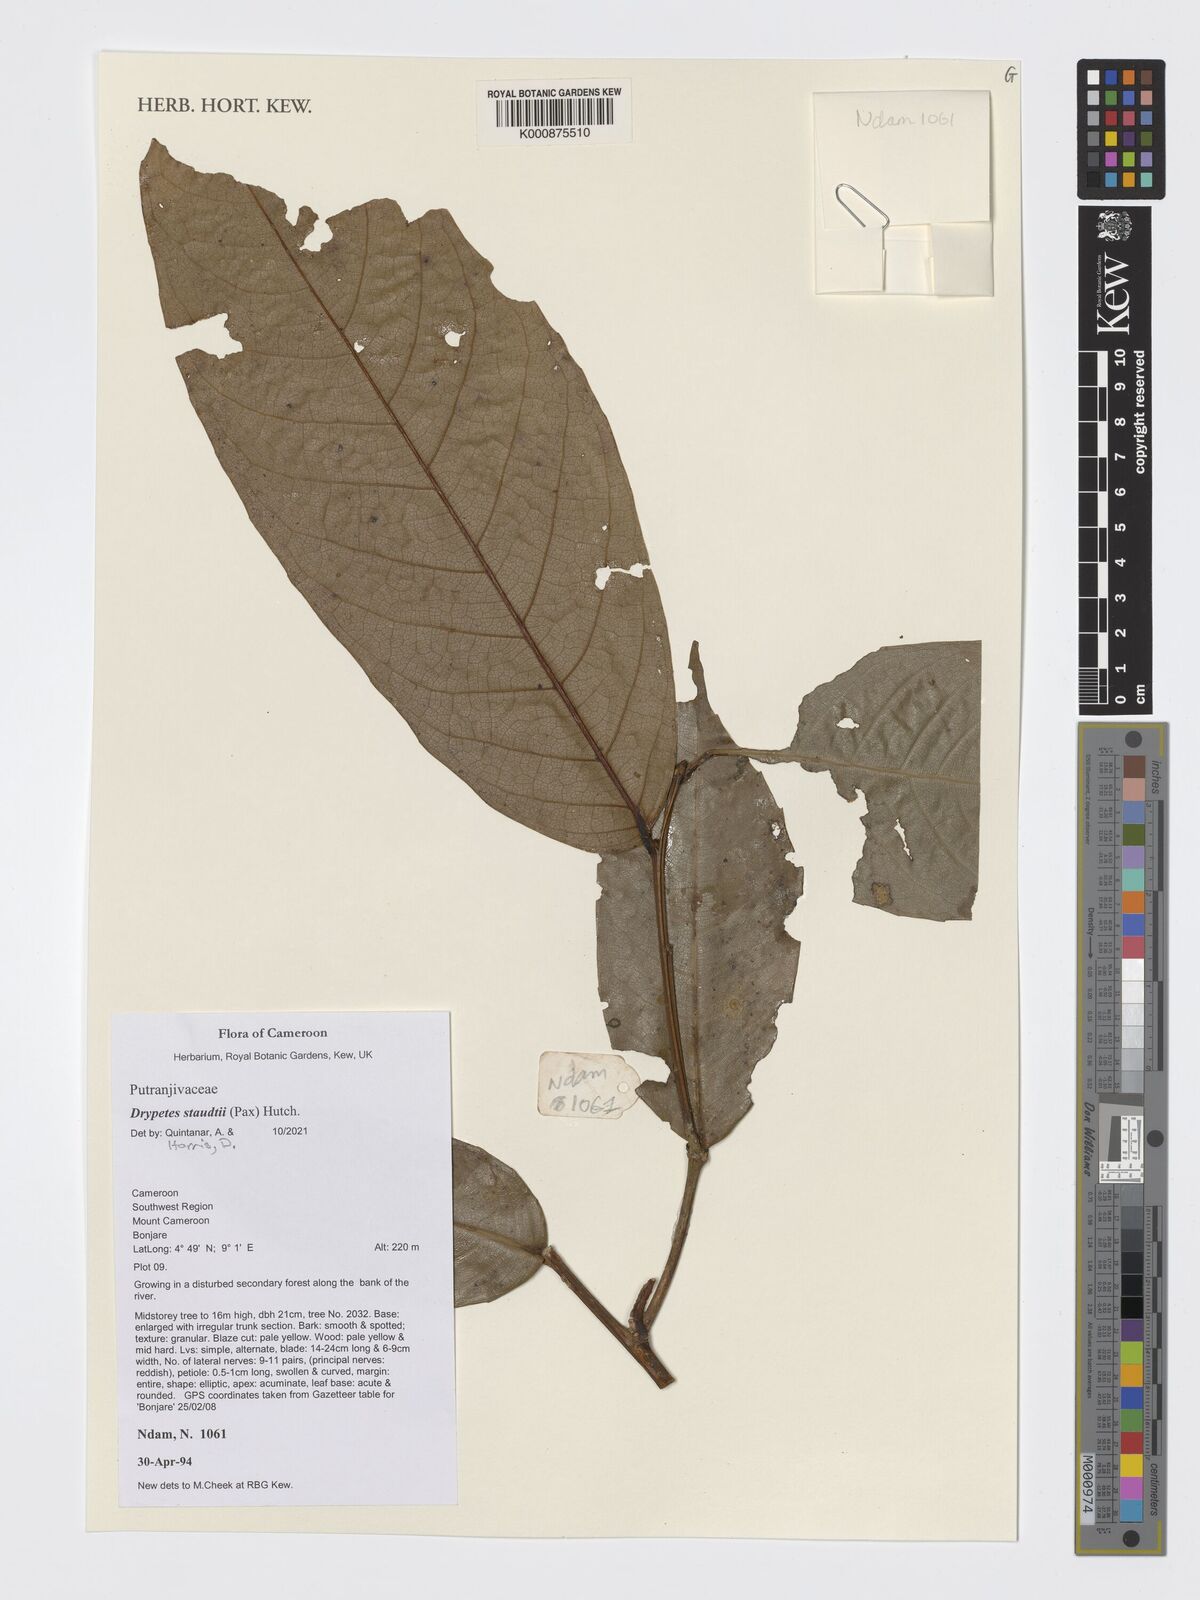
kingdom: Plantae
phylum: Tracheophyta
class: Magnoliopsida
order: Malpighiales
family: Putranjivaceae
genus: Drypetes
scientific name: Drypetes staudtii
